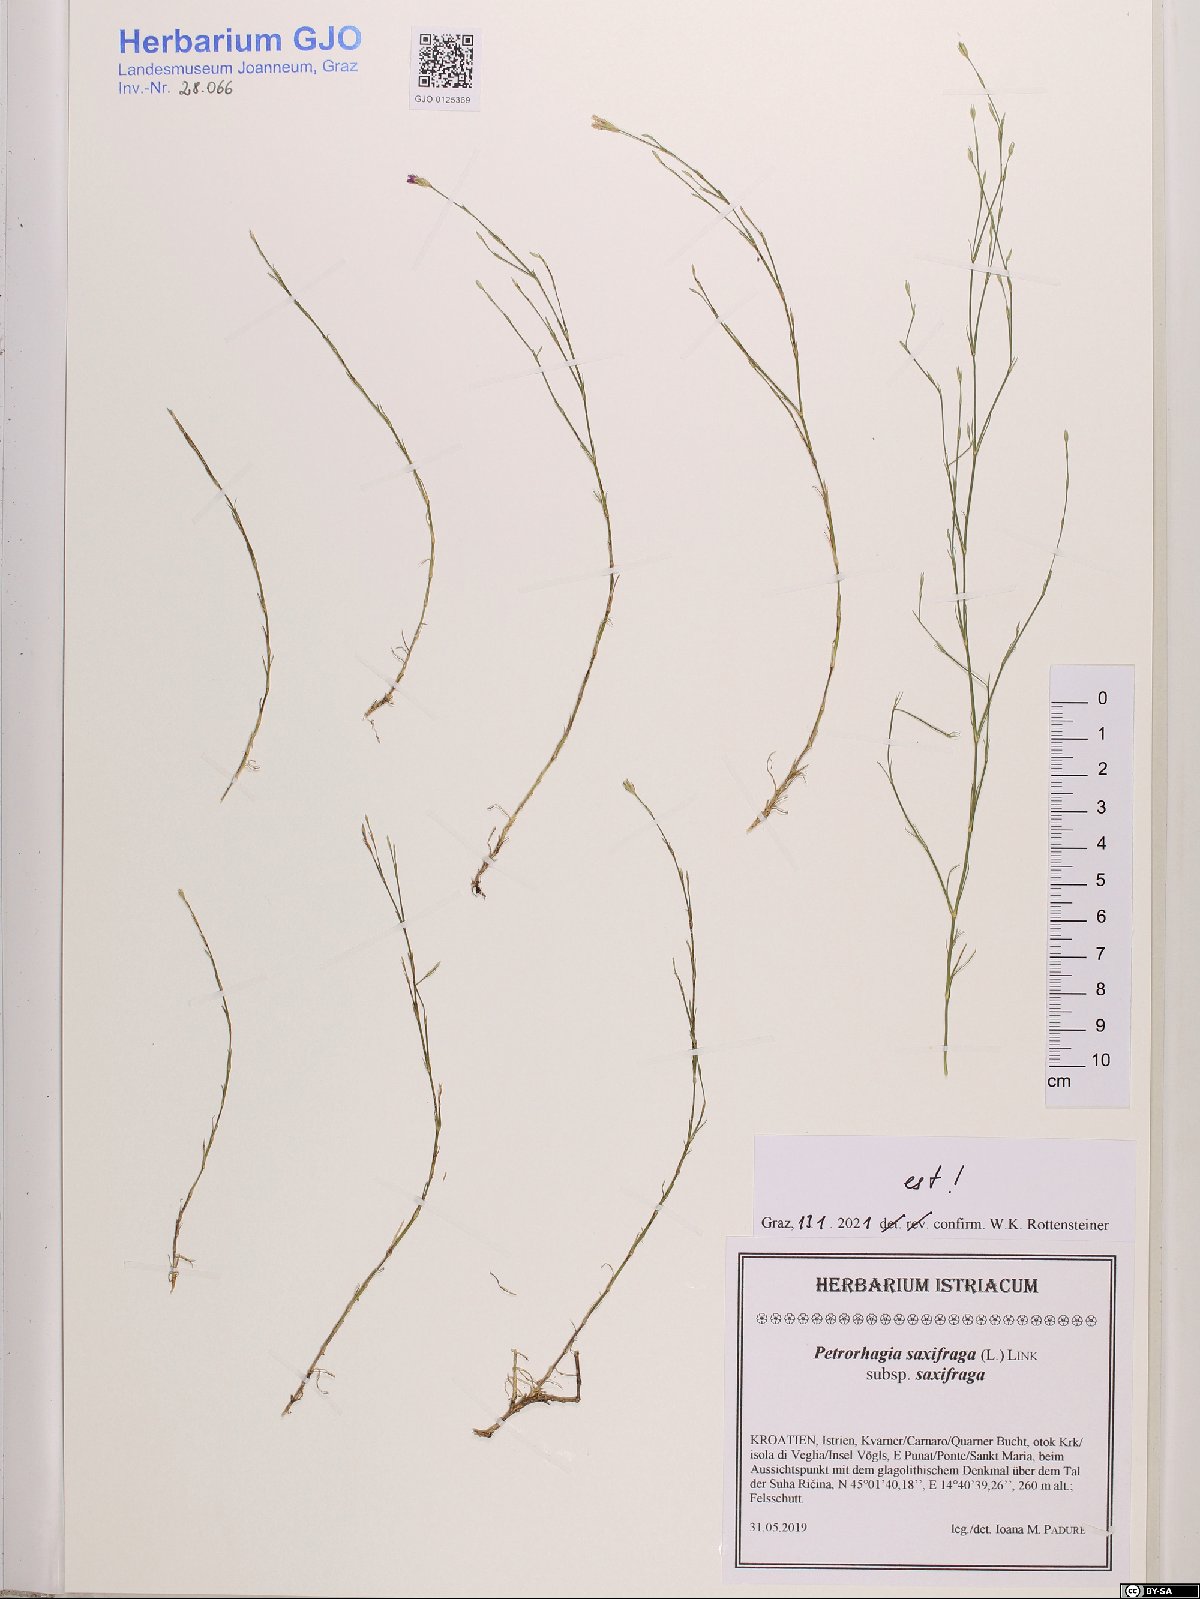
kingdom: Plantae
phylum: Tracheophyta
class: Magnoliopsida
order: Caryophyllales
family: Caryophyllaceae
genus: Petrorhagia
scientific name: Petrorhagia saxifraga
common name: Tunicflower
